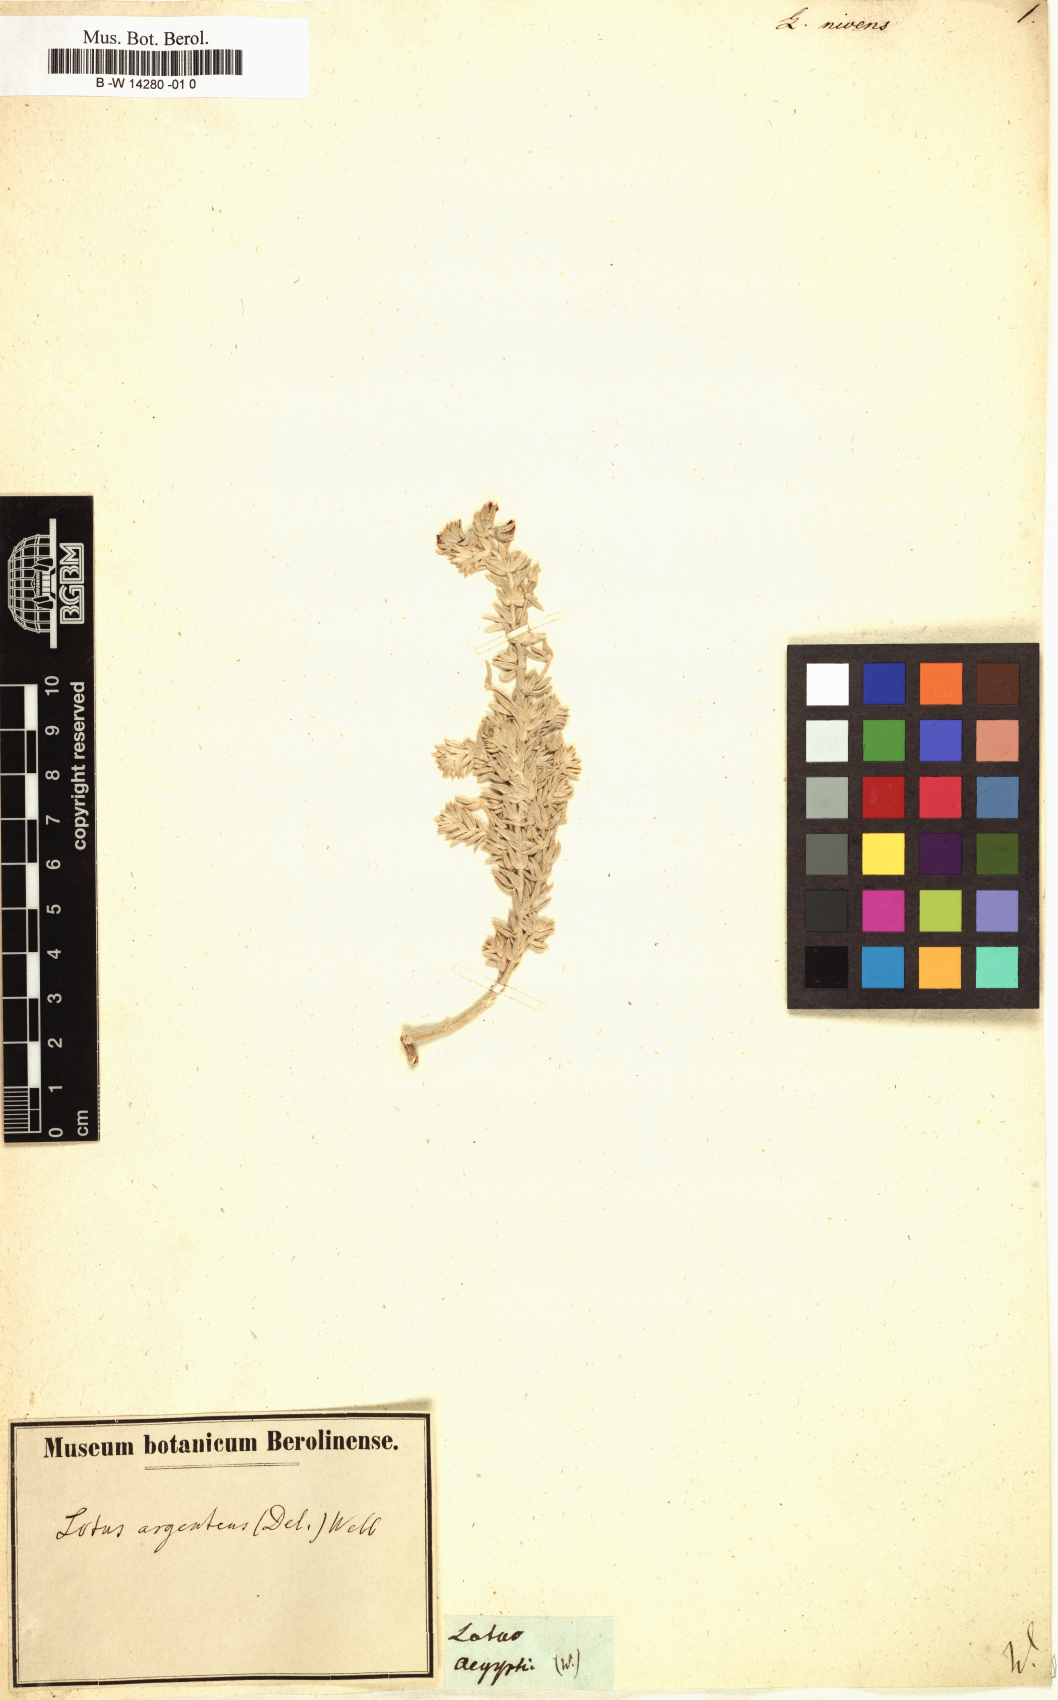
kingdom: Plantae
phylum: Tracheophyta
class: Magnoliopsida
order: Fabales
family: Fabaceae
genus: Acmispon
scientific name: Acmispon argophyllus
